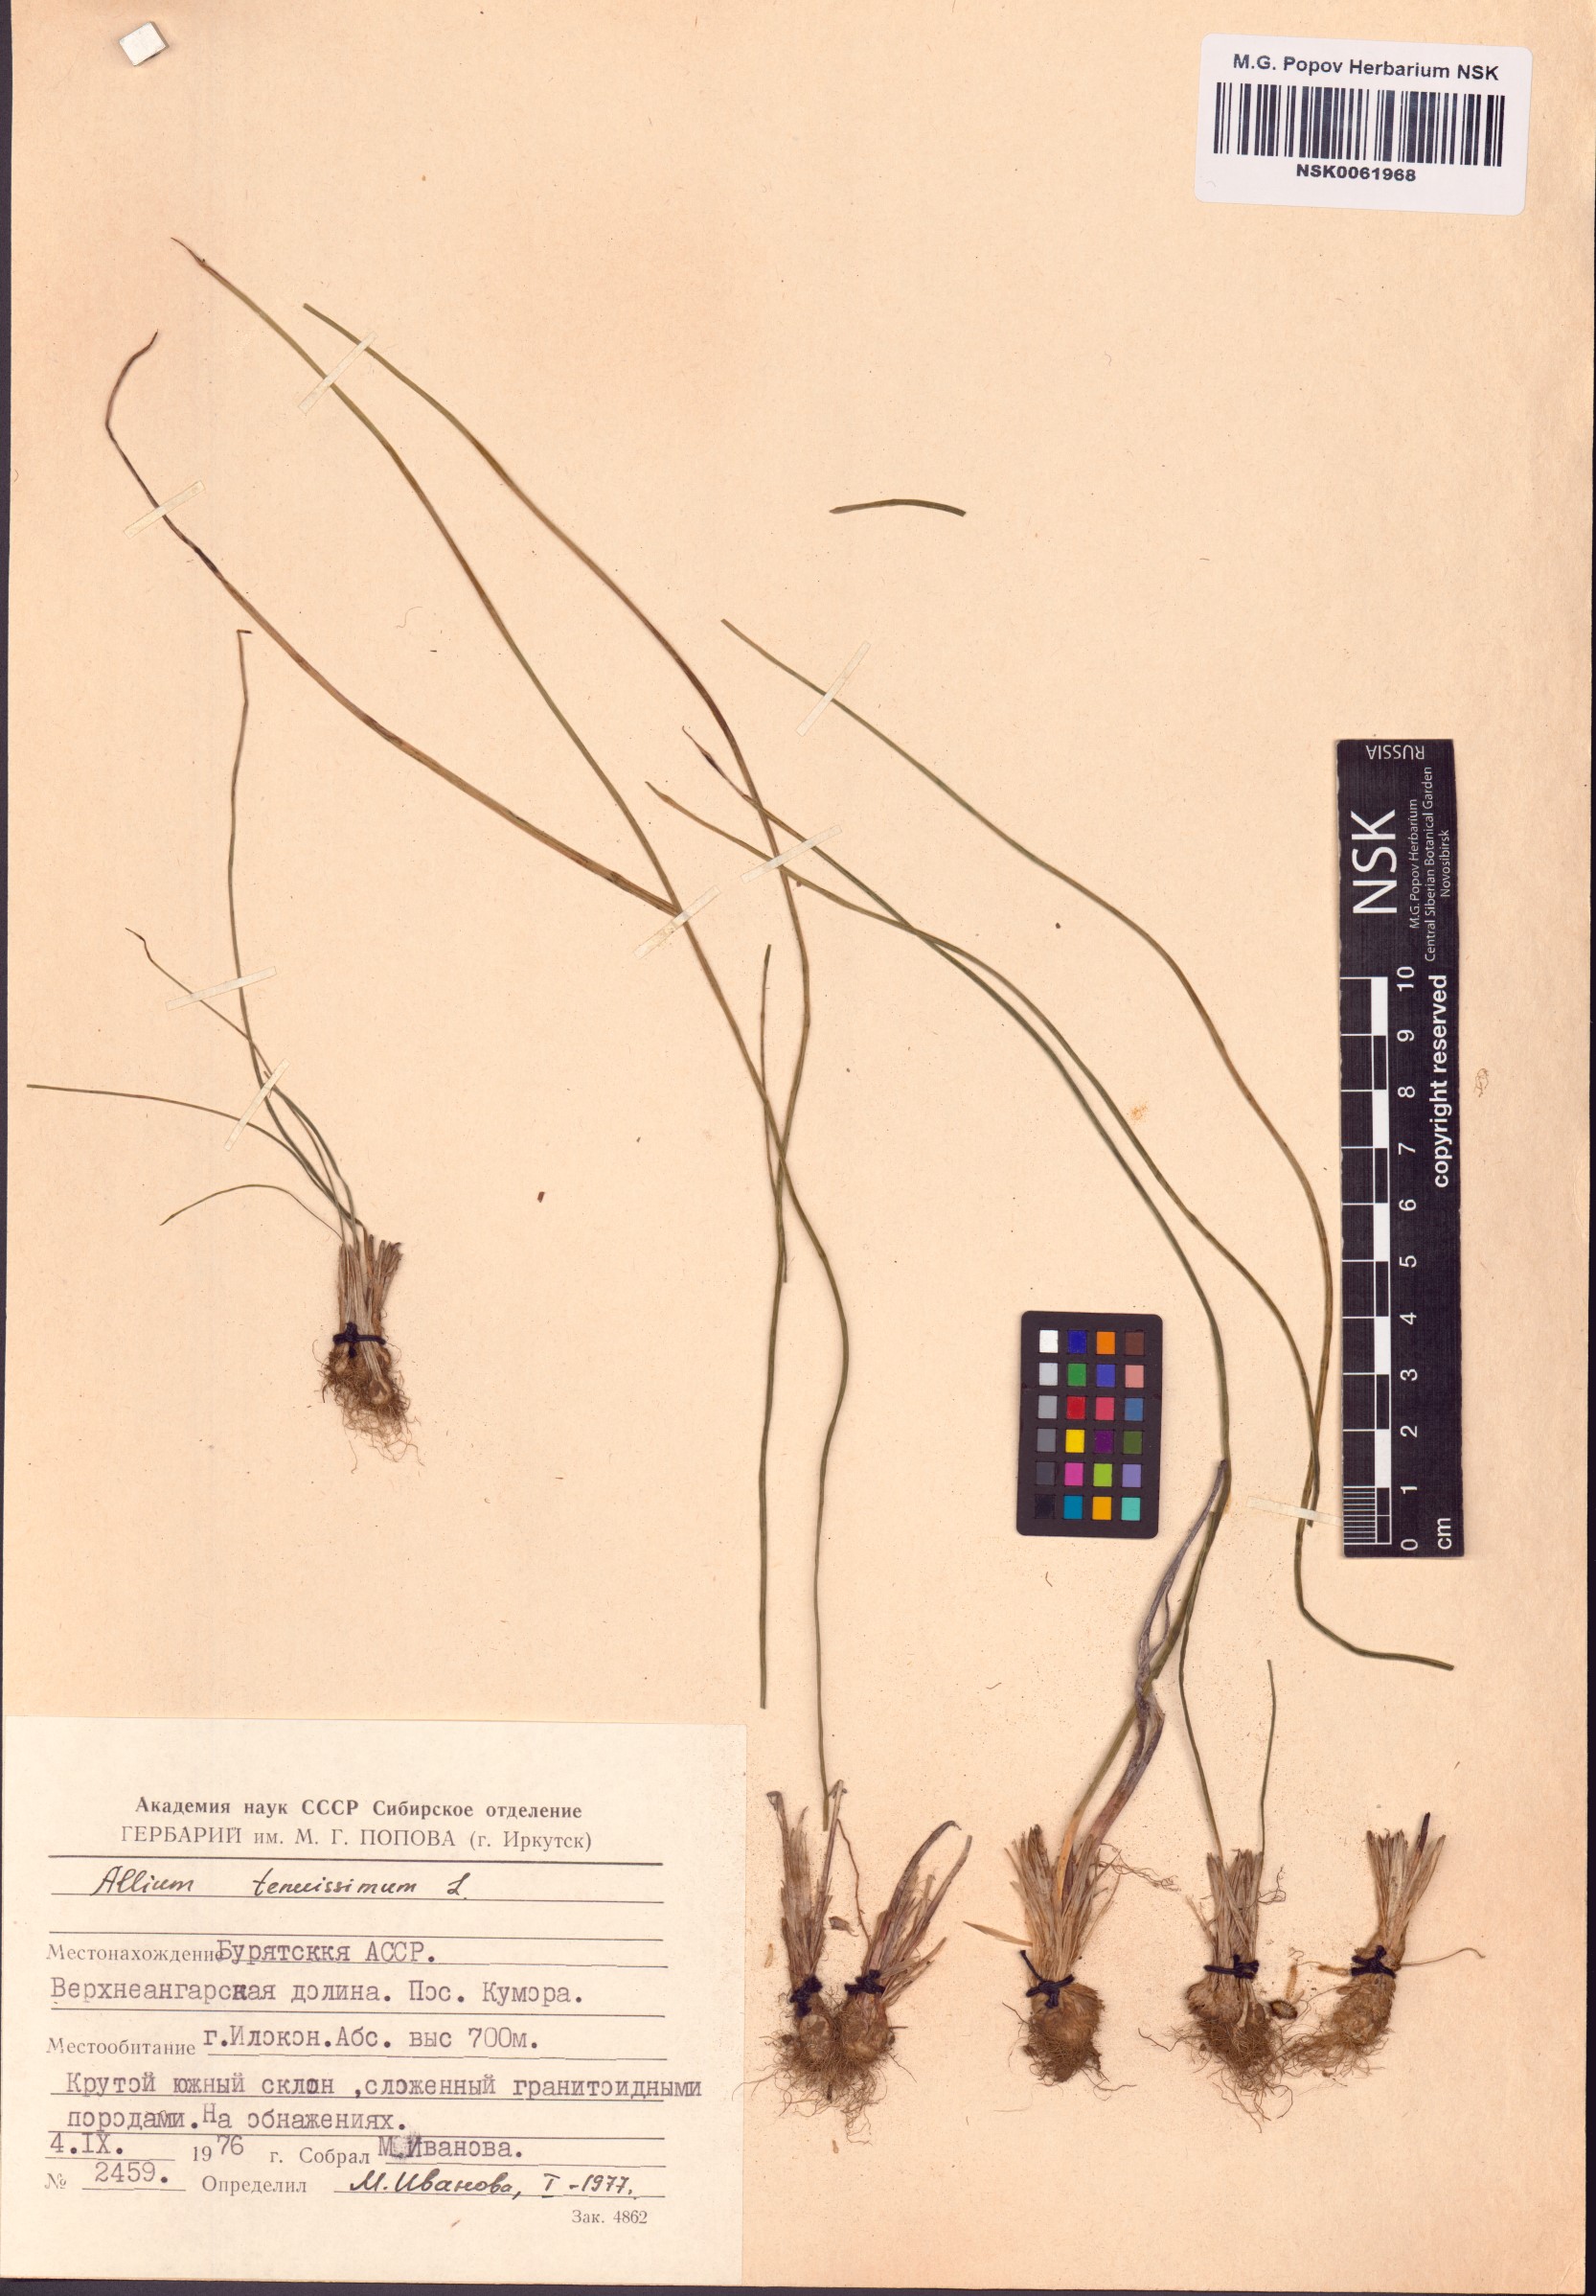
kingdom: Plantae
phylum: Tracheophyta
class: Liliopsida
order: Asparagales
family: Amaryllidaceae
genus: Allium
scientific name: Allium tenuissimum
